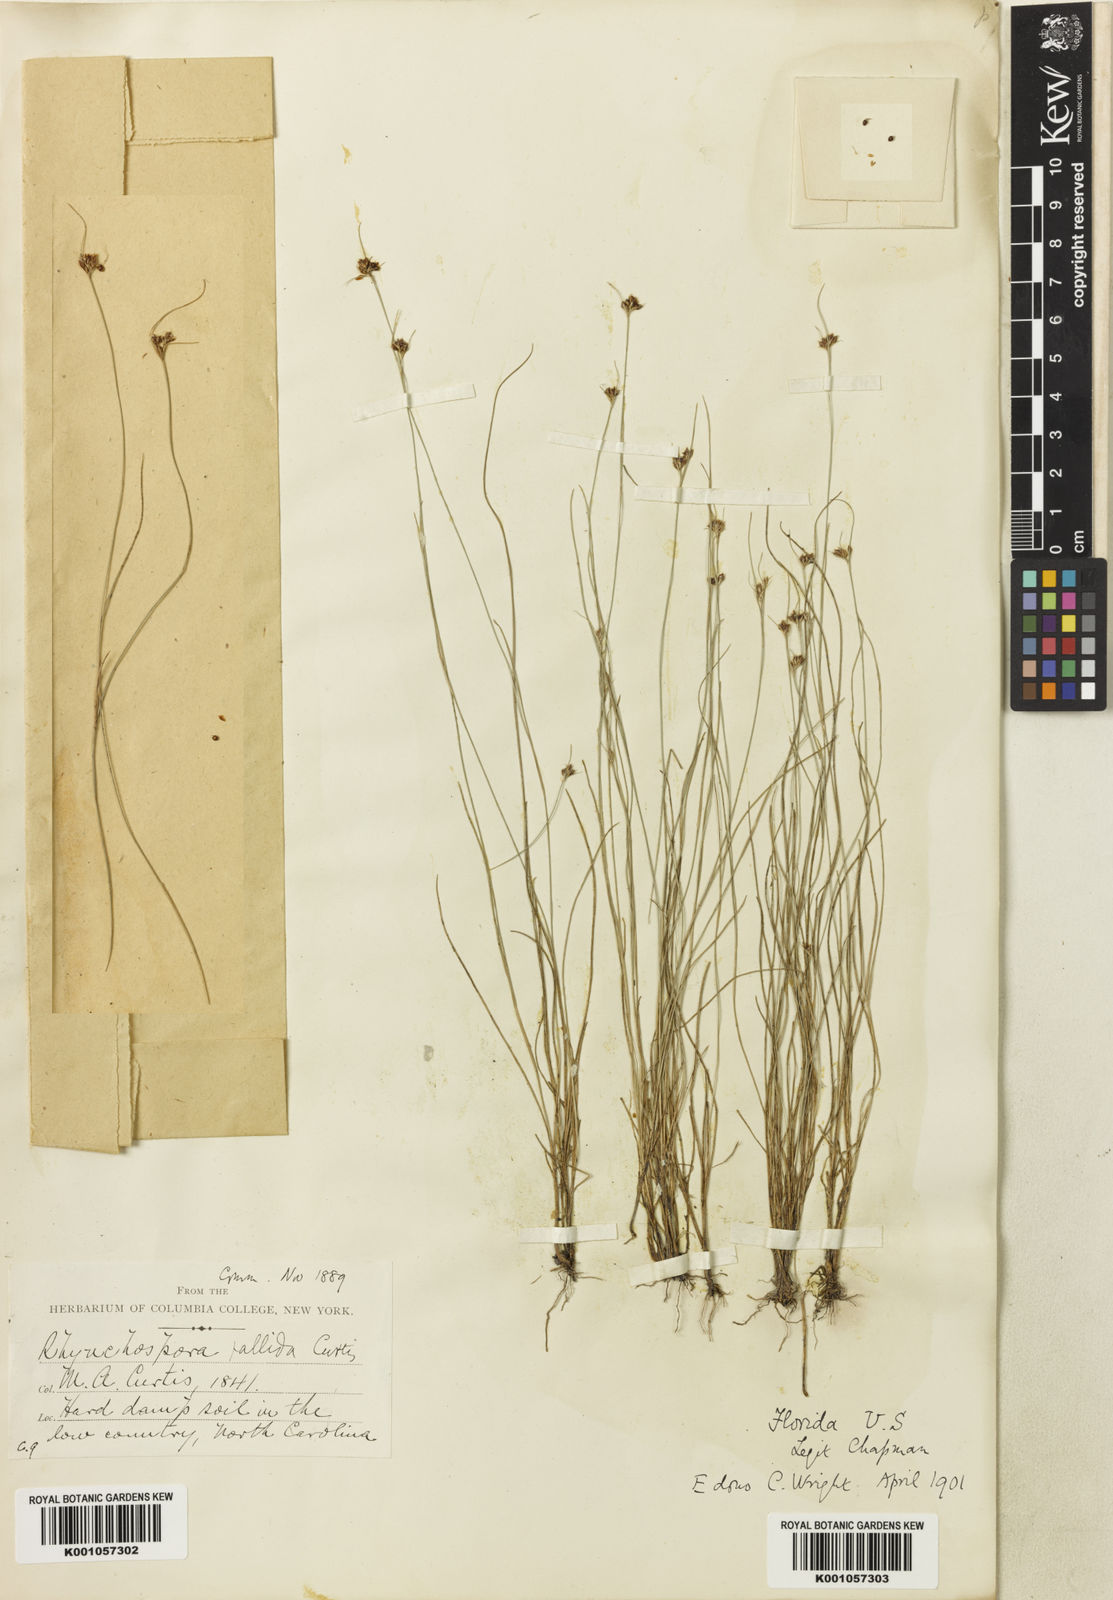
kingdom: Plantae
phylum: Tracheophyta
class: Liliopsida
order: Poales
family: Cyperaceae
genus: Rhynchospora
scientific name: Rhynchospora pallida
